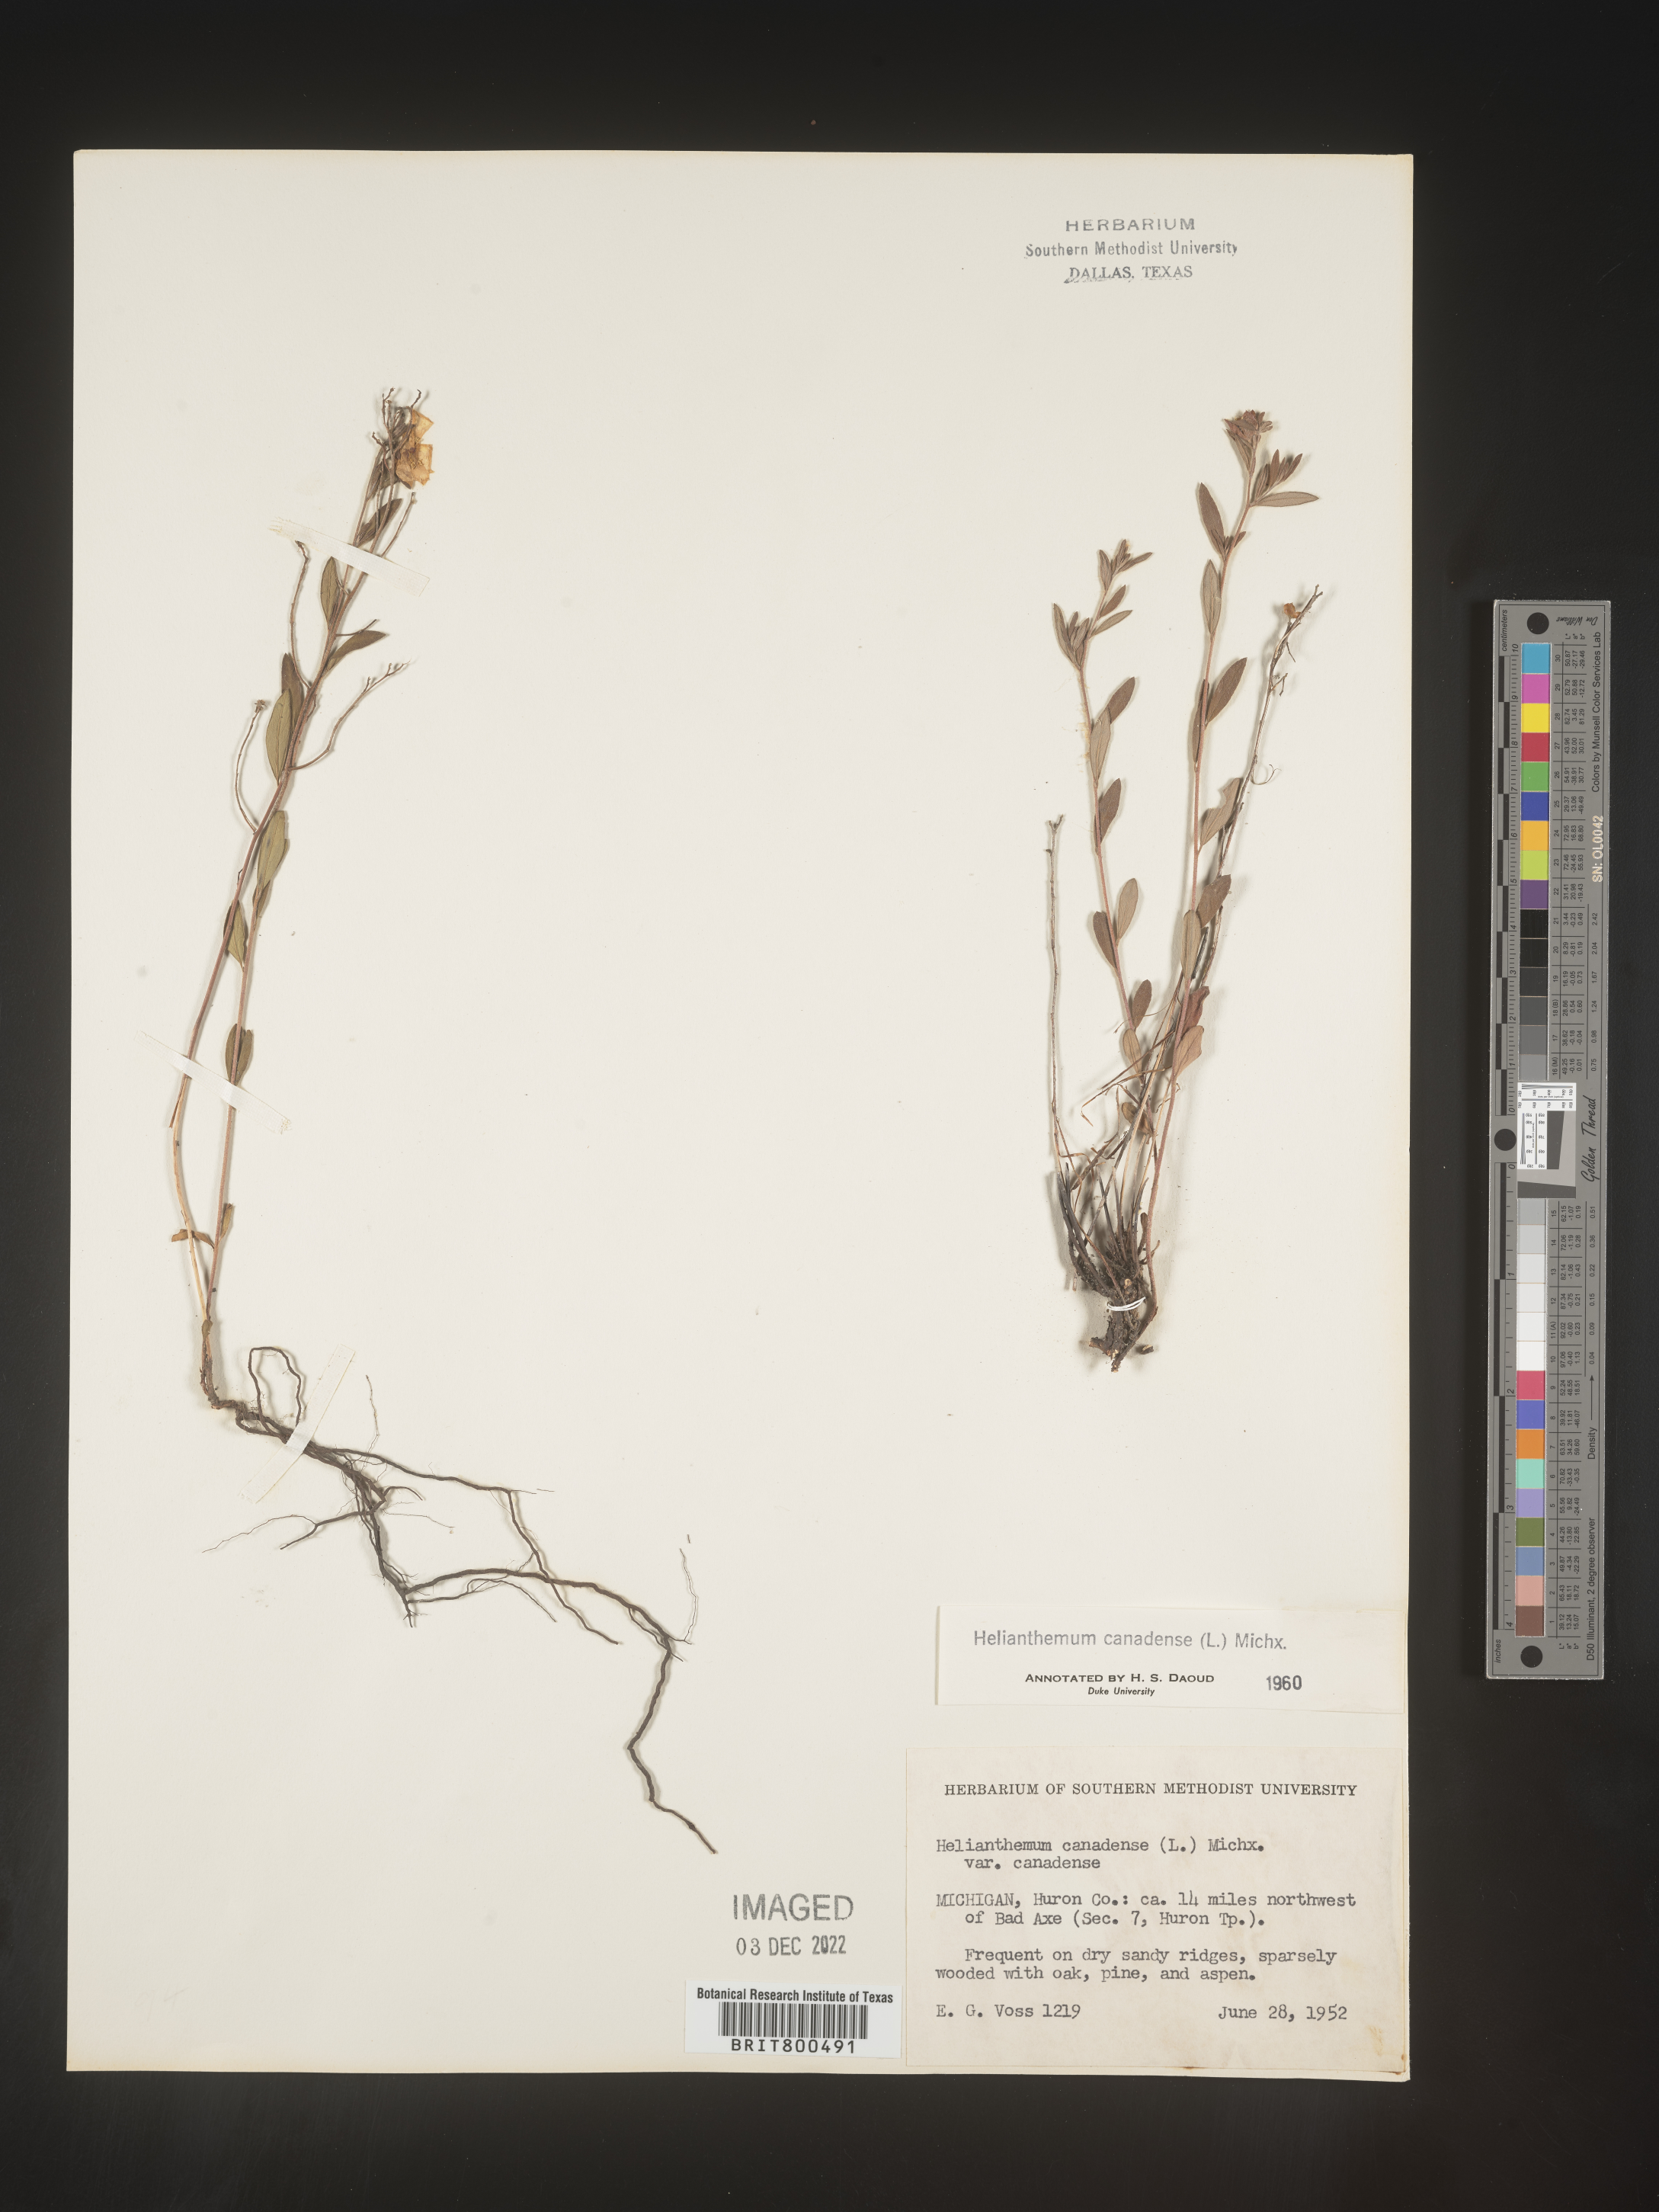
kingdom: Plantae
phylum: Tracheophyta
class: Magnoliopsida
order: Malvales
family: Cistaceae
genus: Crocanthemum
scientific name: Crocanthemum canadense
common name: Canada frostweed
